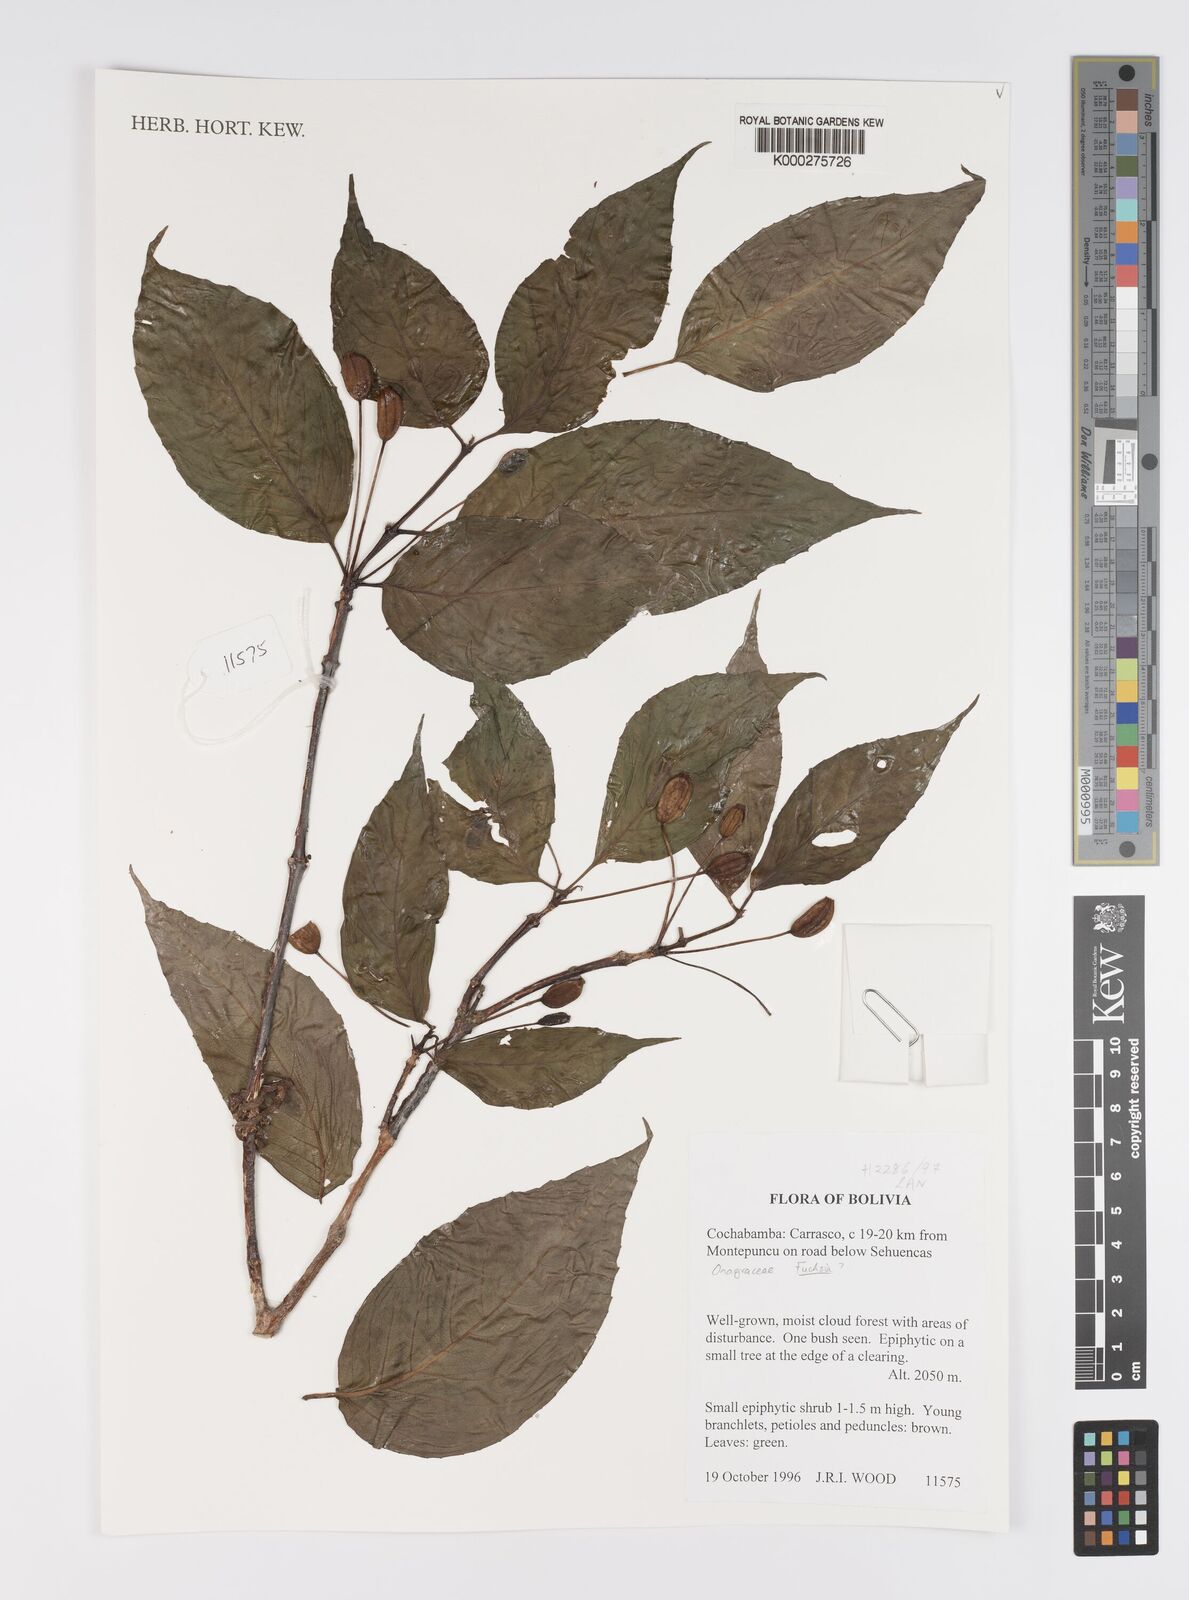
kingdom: Plantae
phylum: Tracheophyta
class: Magnoliopsida
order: Myrtales
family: Onagraceae
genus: Fuchsia
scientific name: Fuchsia
